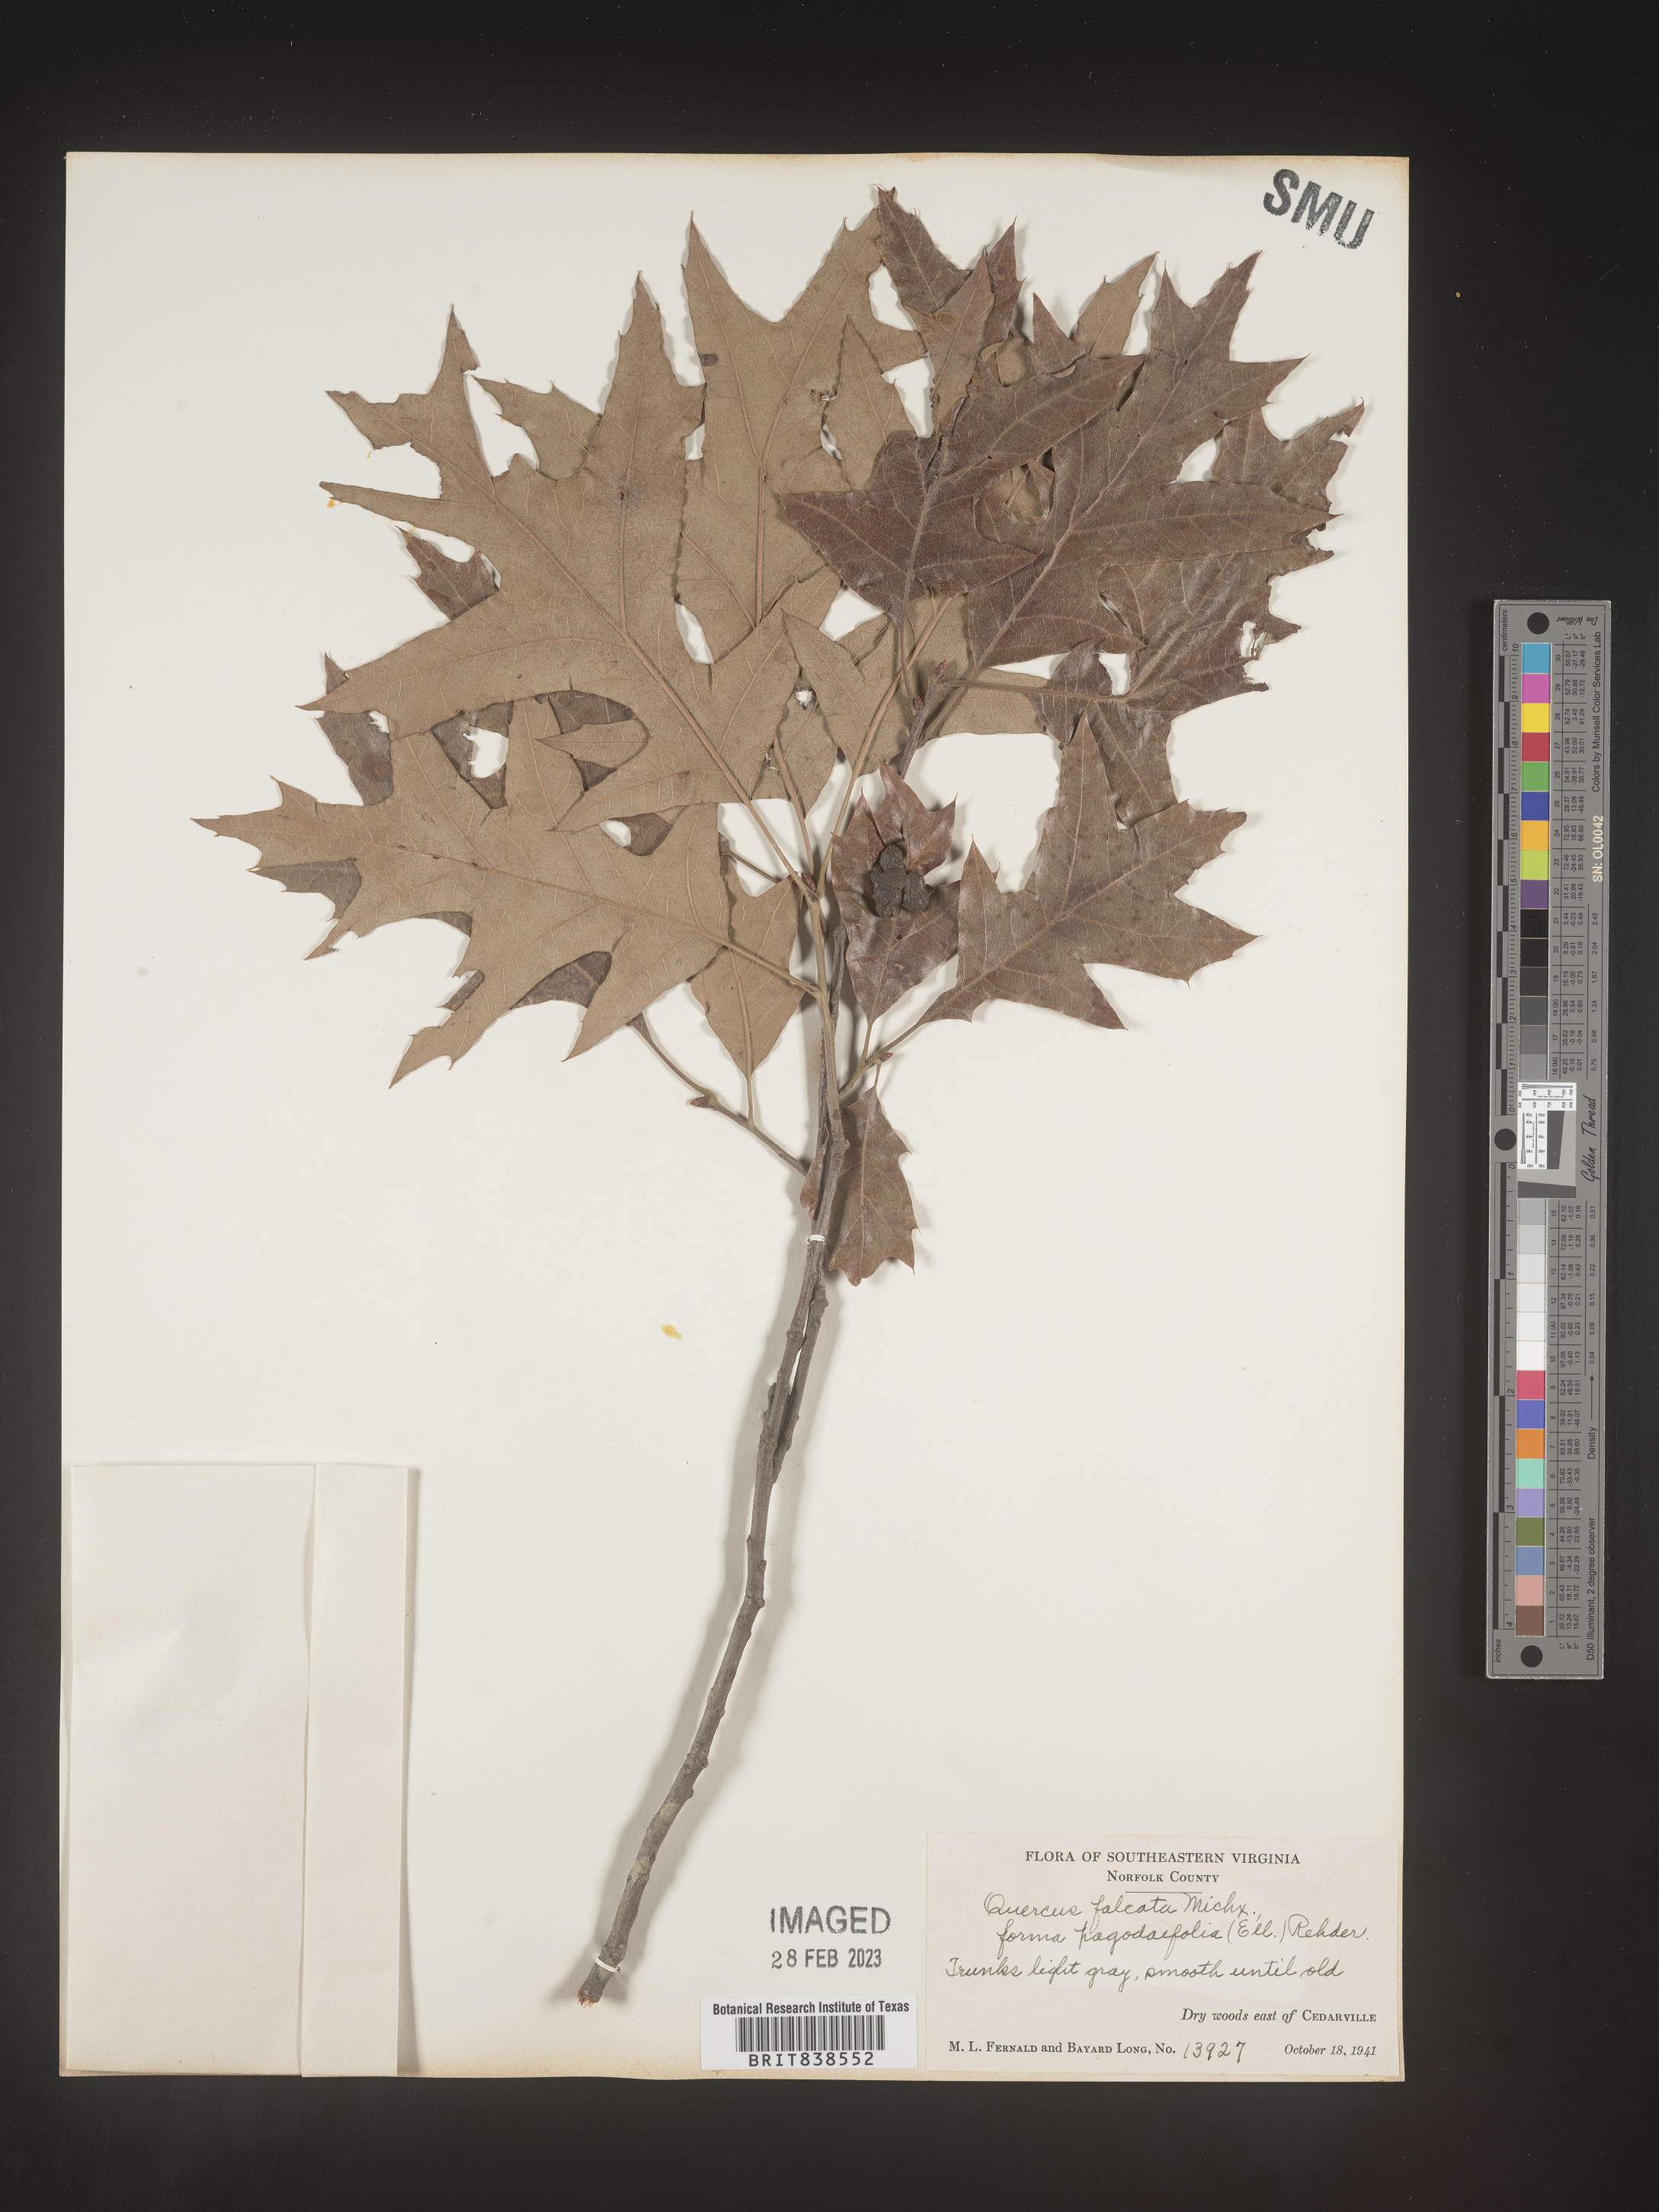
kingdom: Plantae
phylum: Tracheophyta
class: Magnoliopsida
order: Fagales
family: Fagaceae
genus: Quercus
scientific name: Quercus falcata
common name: Southern red oak
